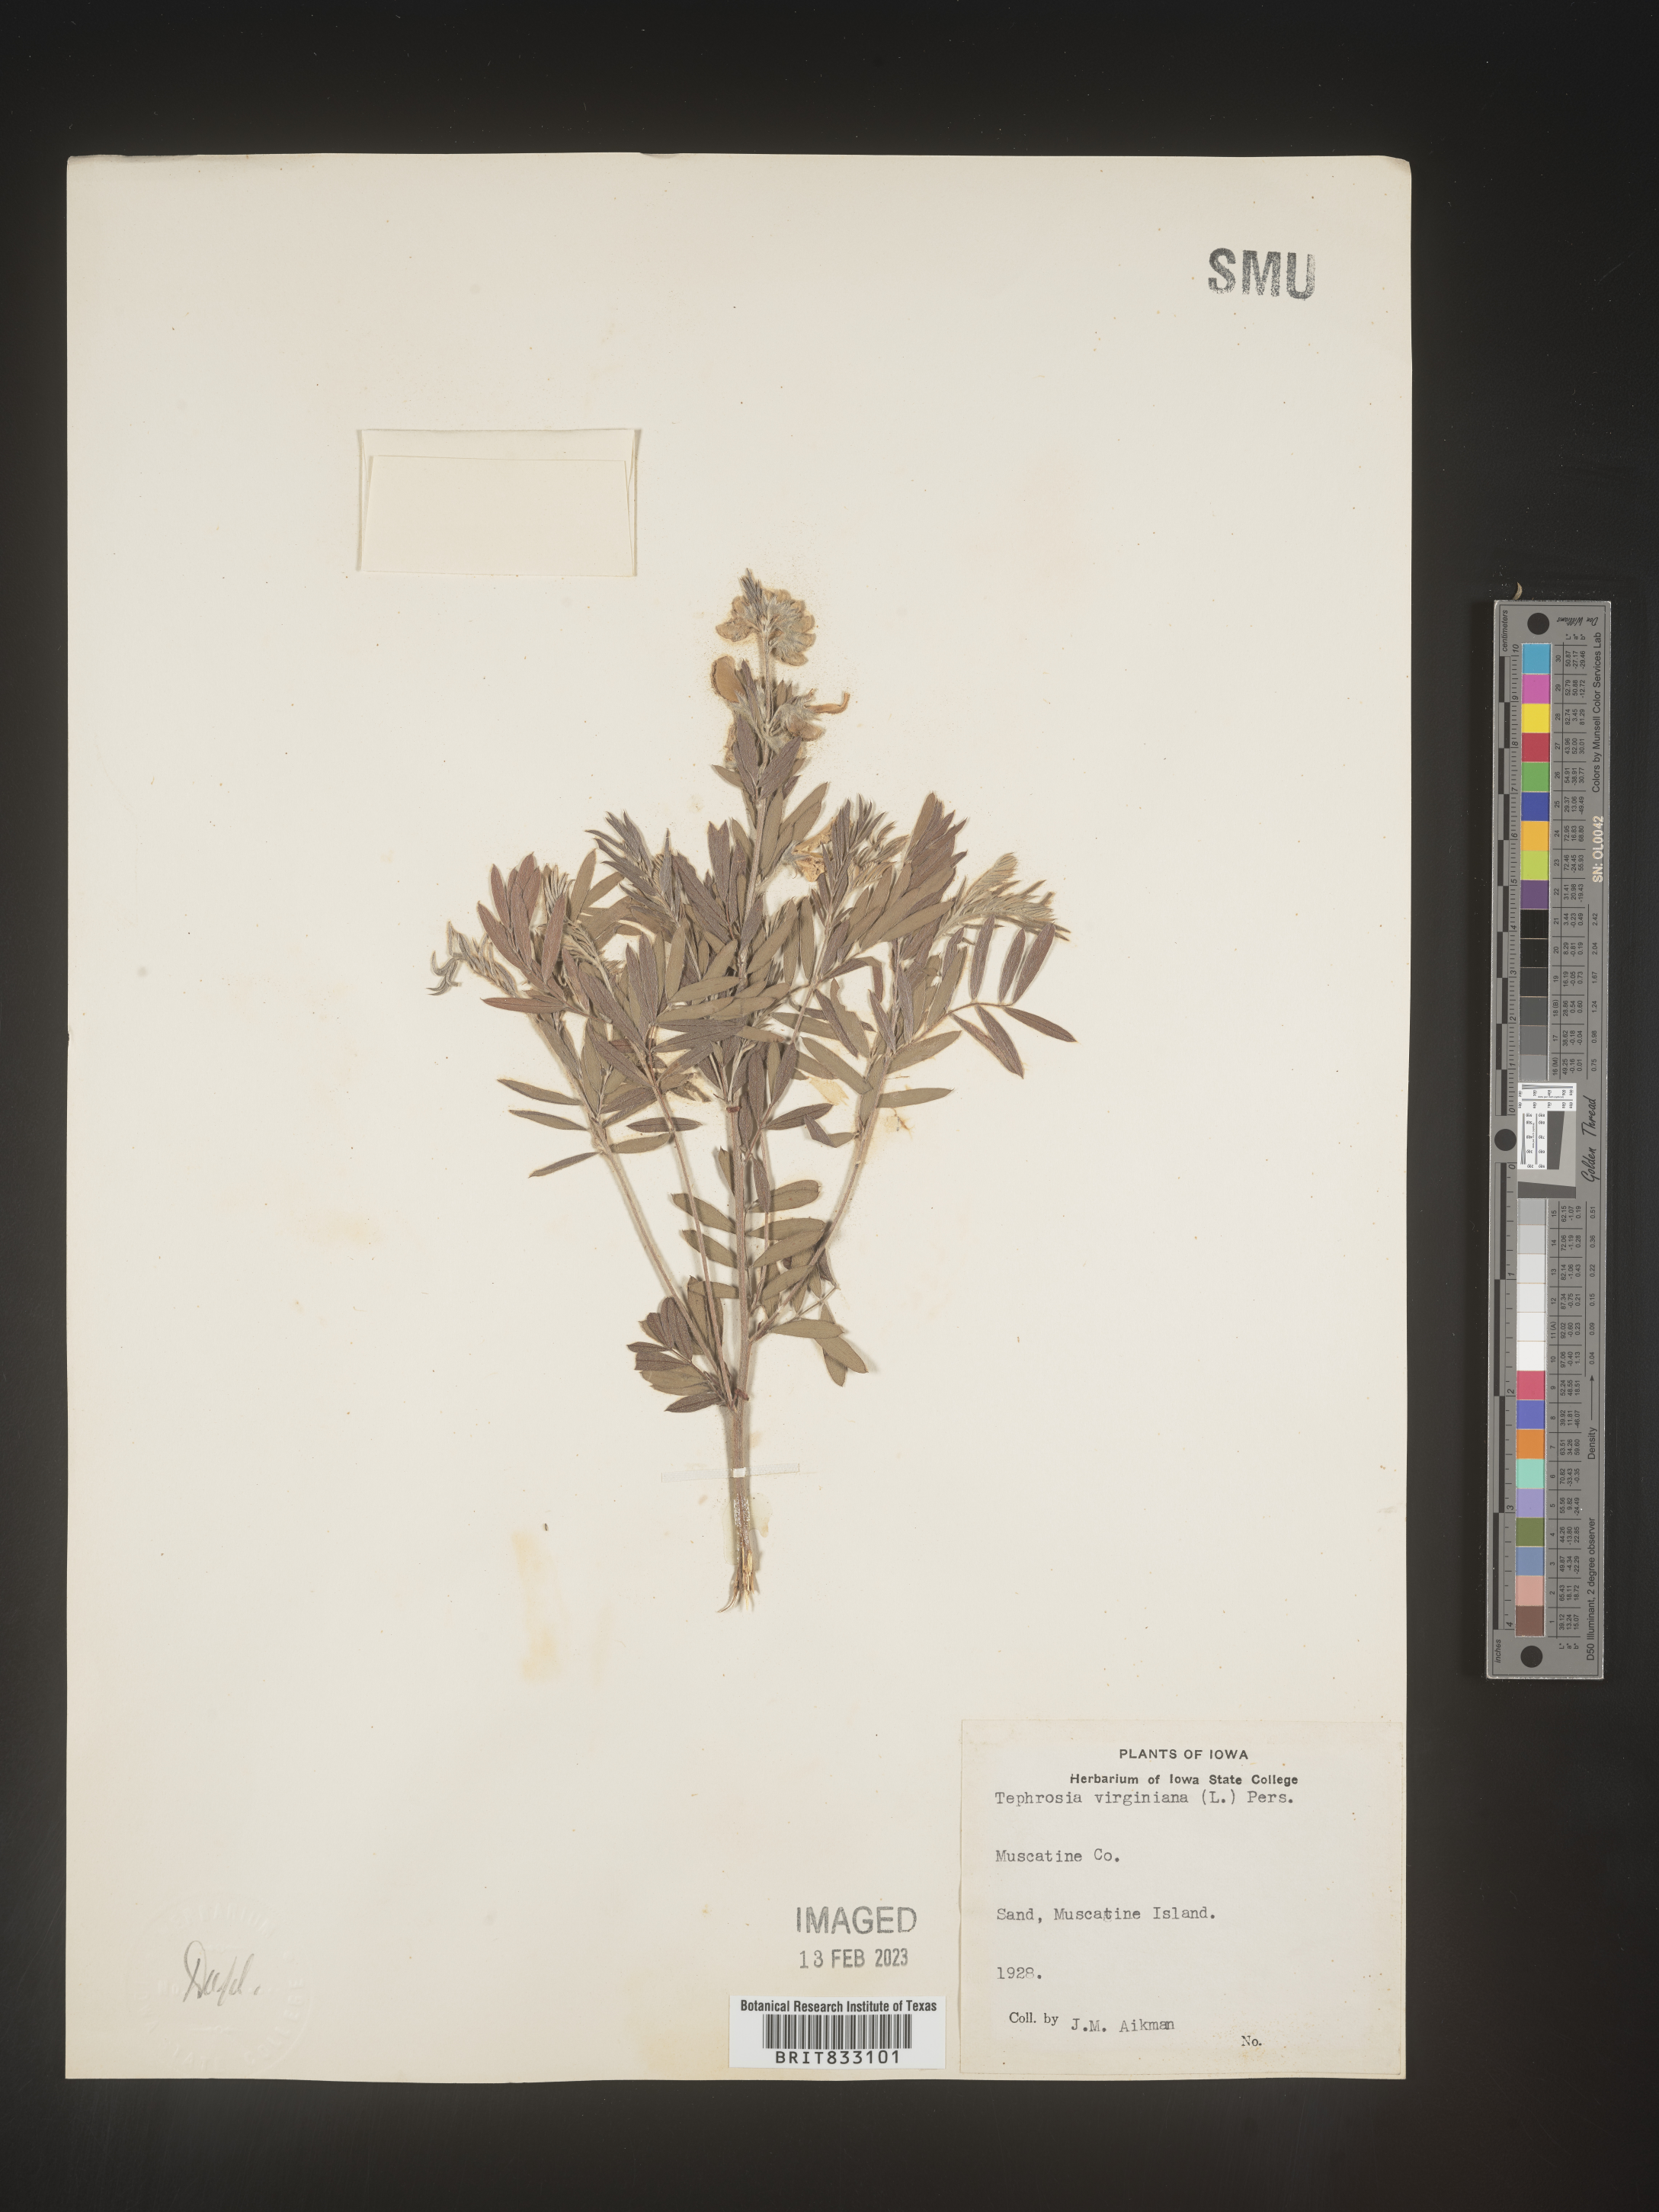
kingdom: Plantae
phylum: Tracheophyta
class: Magnoliopsida
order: Fabales
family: Fabaceae
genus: Tephrosia
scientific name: Tephrosia virginiana
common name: Rabbit-pea
